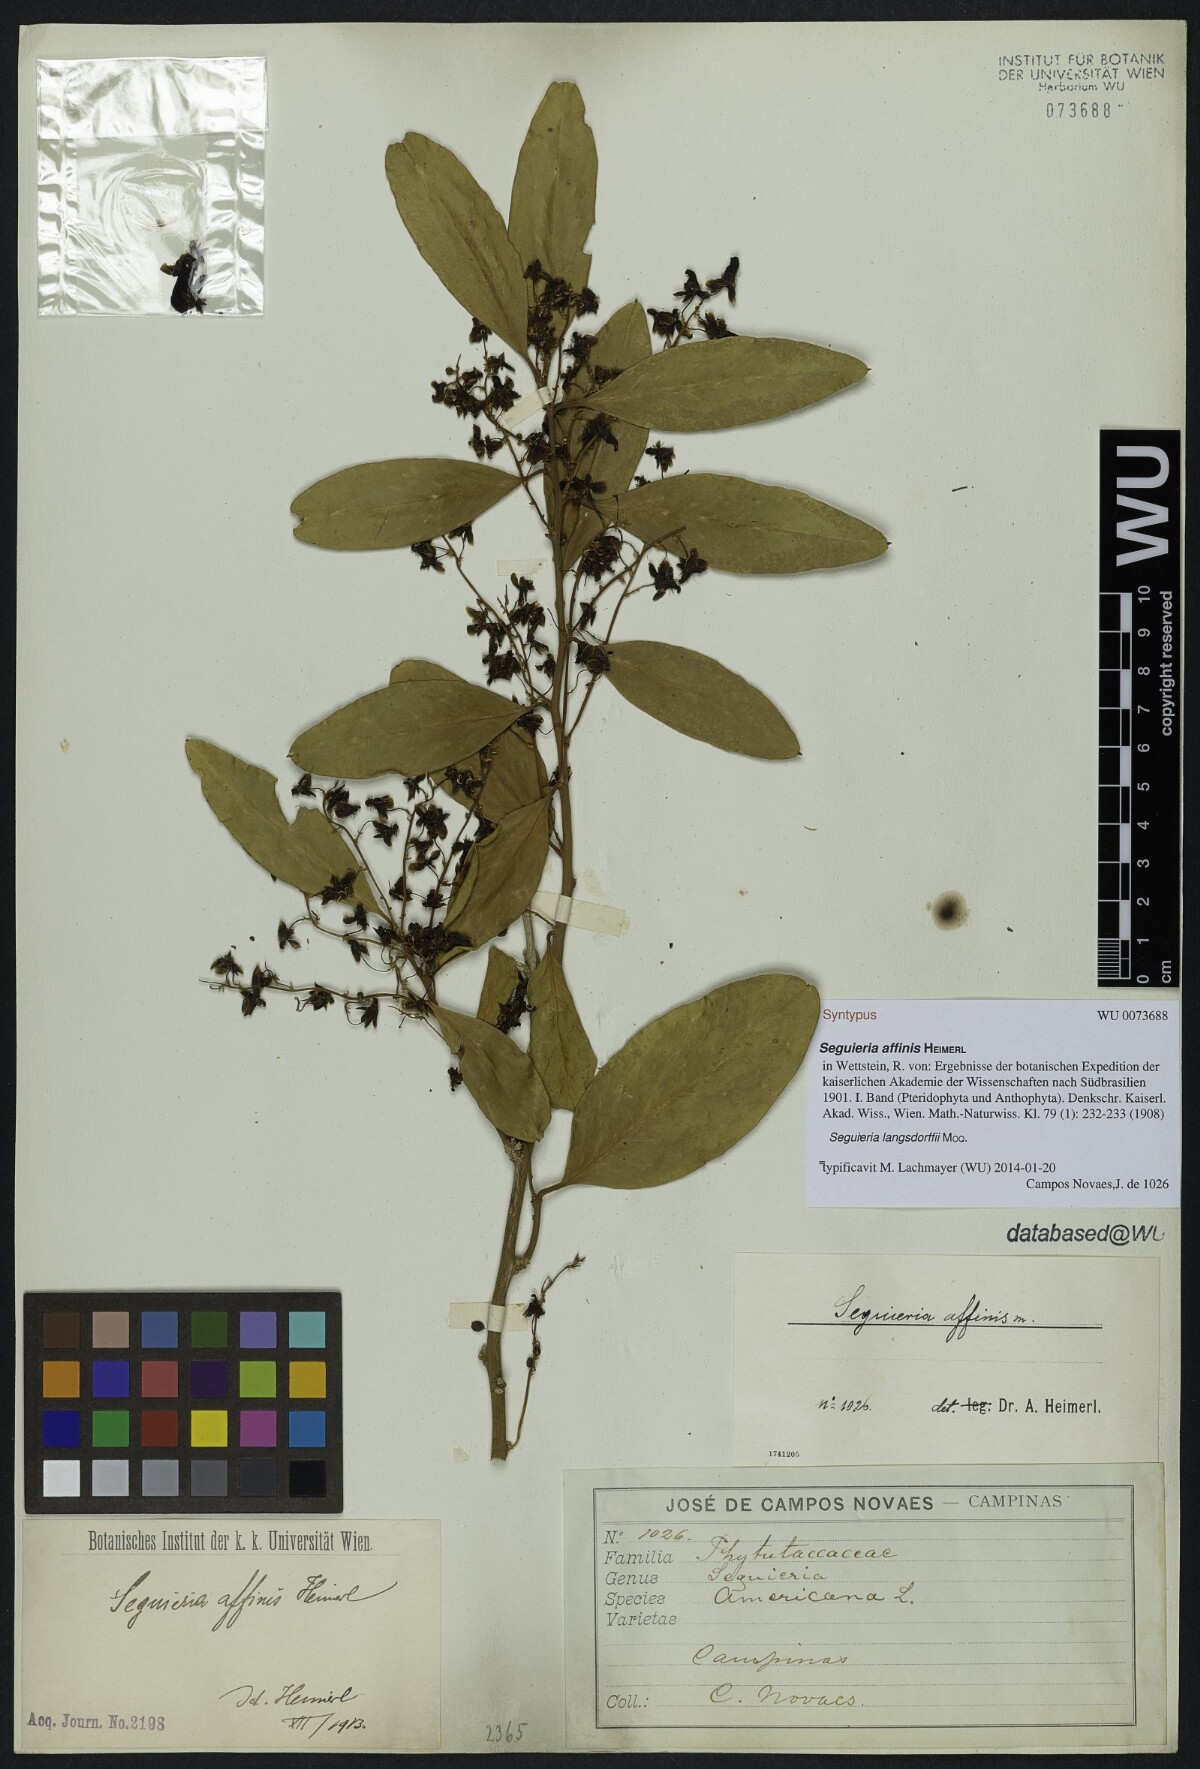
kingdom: Plantae
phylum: Tracheophyta
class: Magnoliopsida
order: Caryophyllales
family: Phytolaccaceae
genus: Seguieria
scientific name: Seguieria langsdorffii
